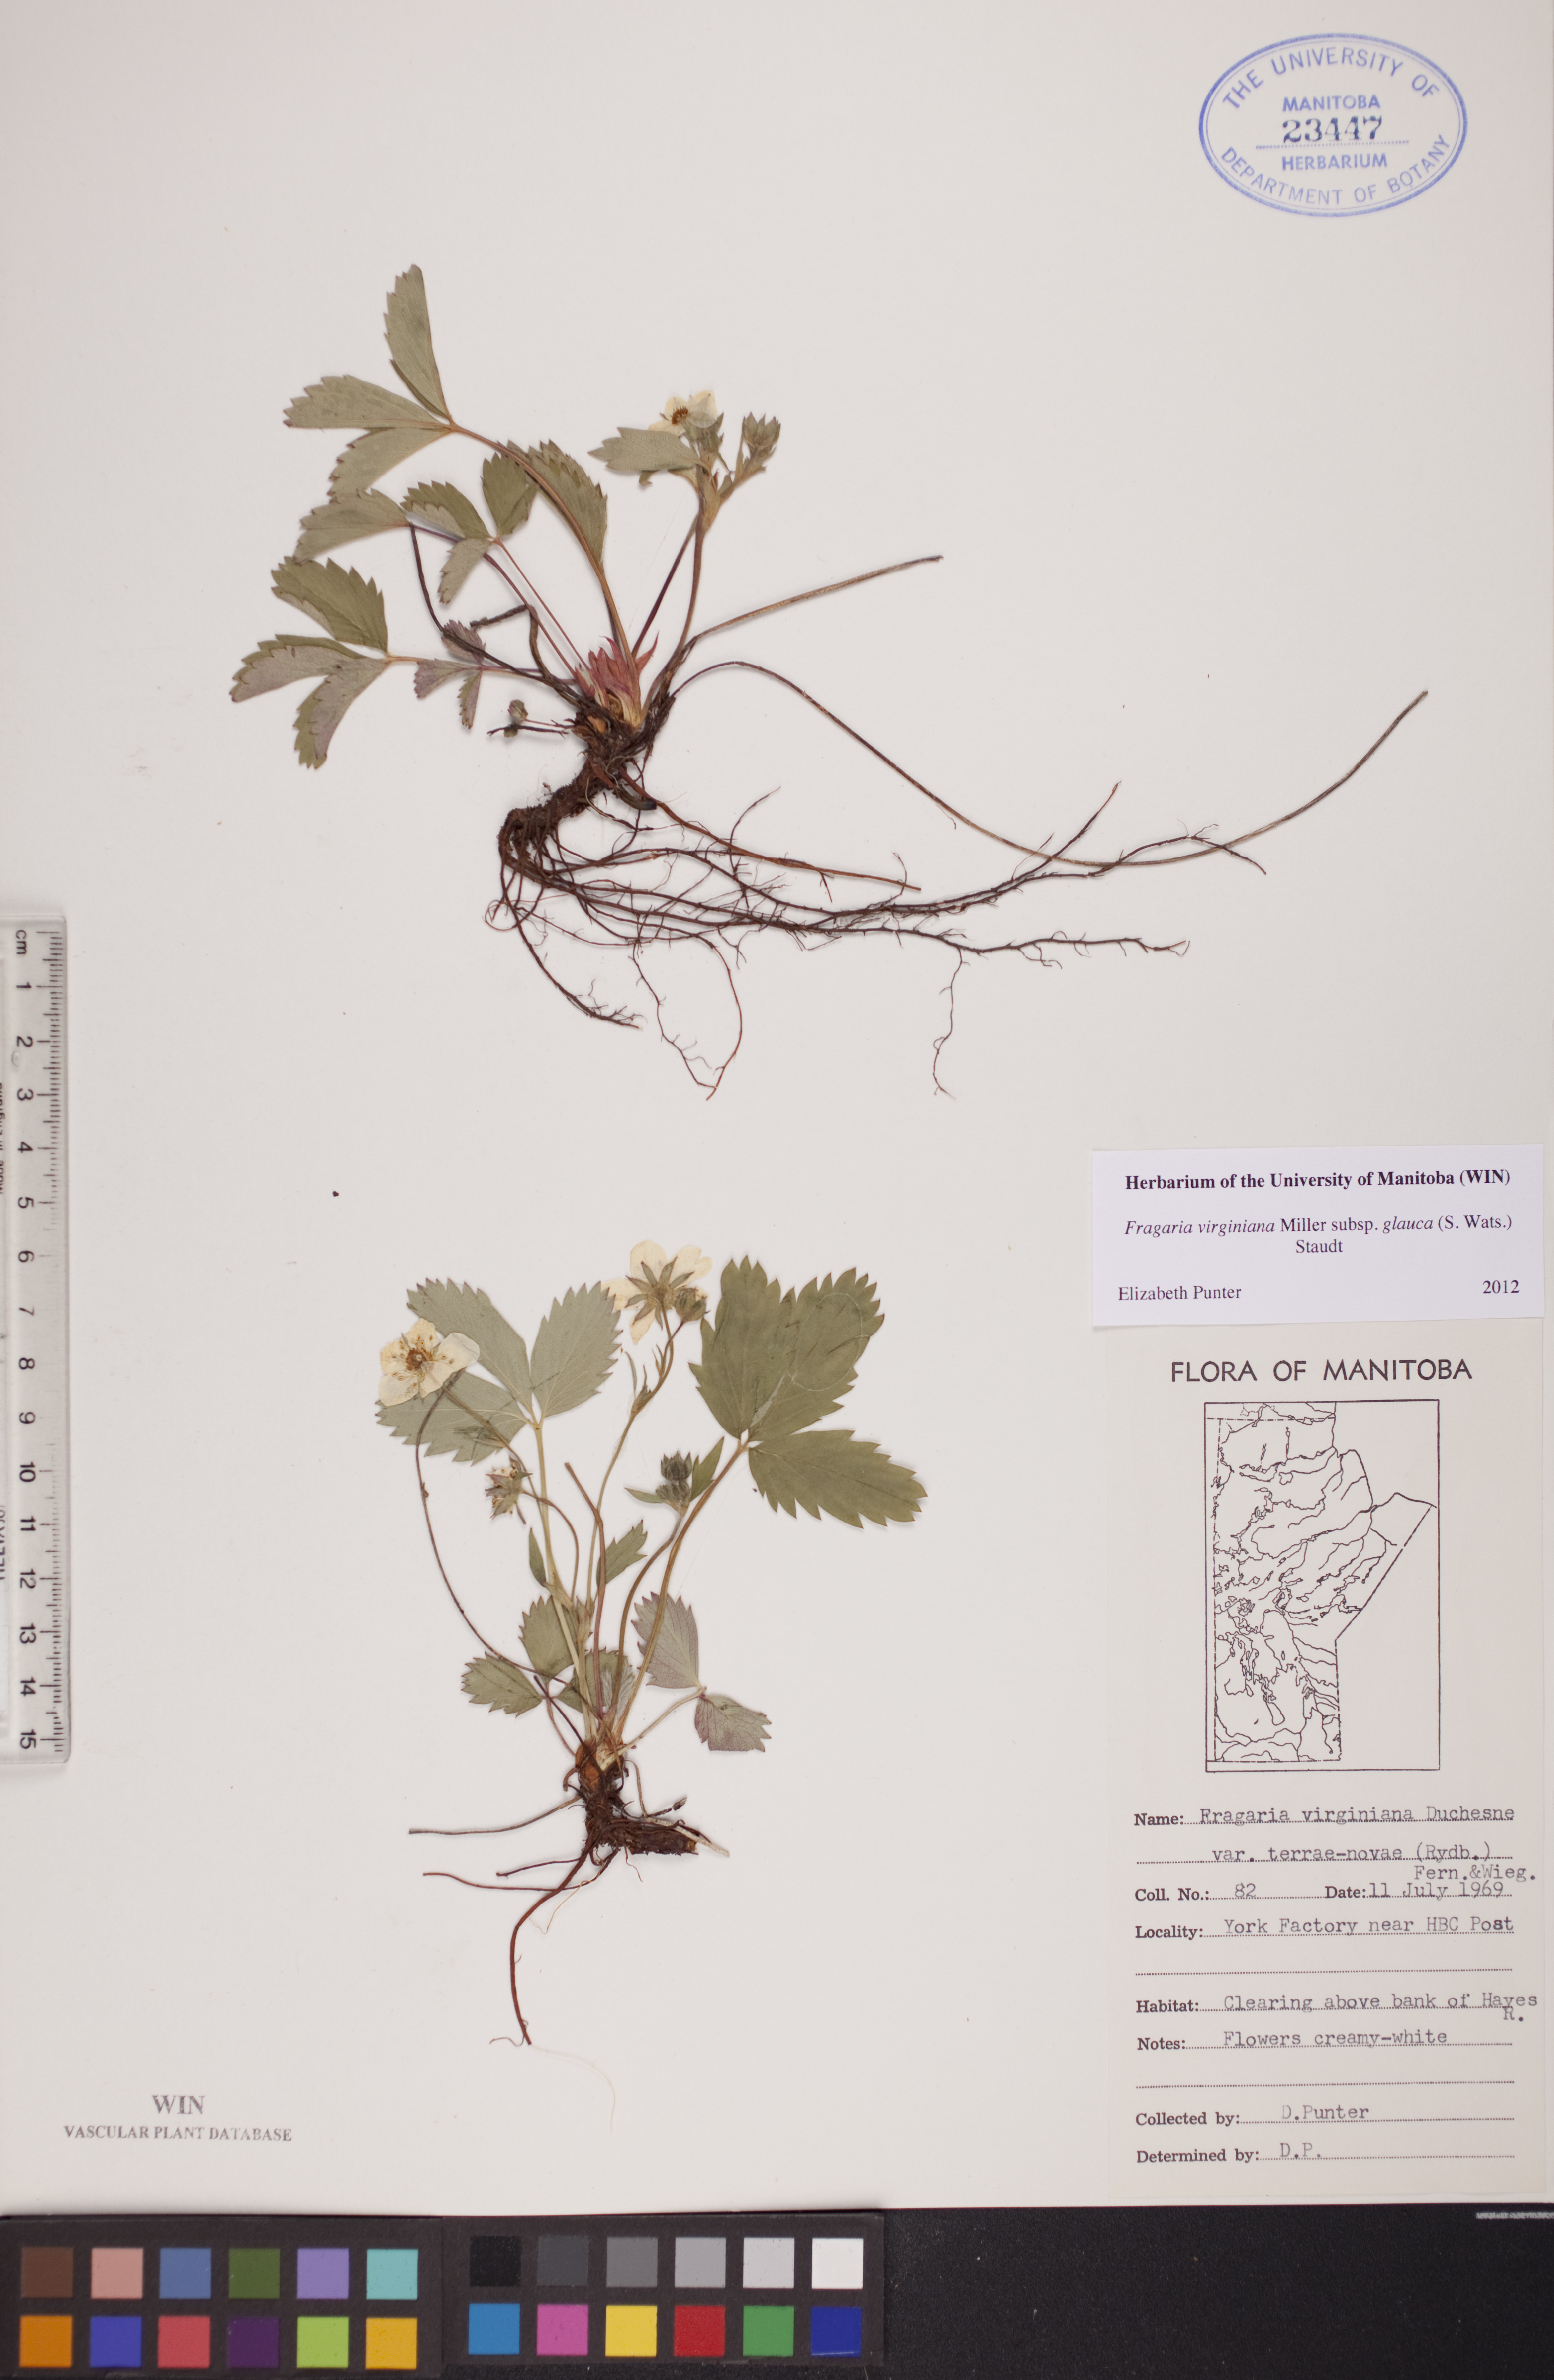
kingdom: Plantae
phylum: Tracheophyta
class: Magnoliopsida
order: Rosales
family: Rosaceae
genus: Fragaria
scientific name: Fragaria virginiana
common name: Thickleaved wild strawberry
